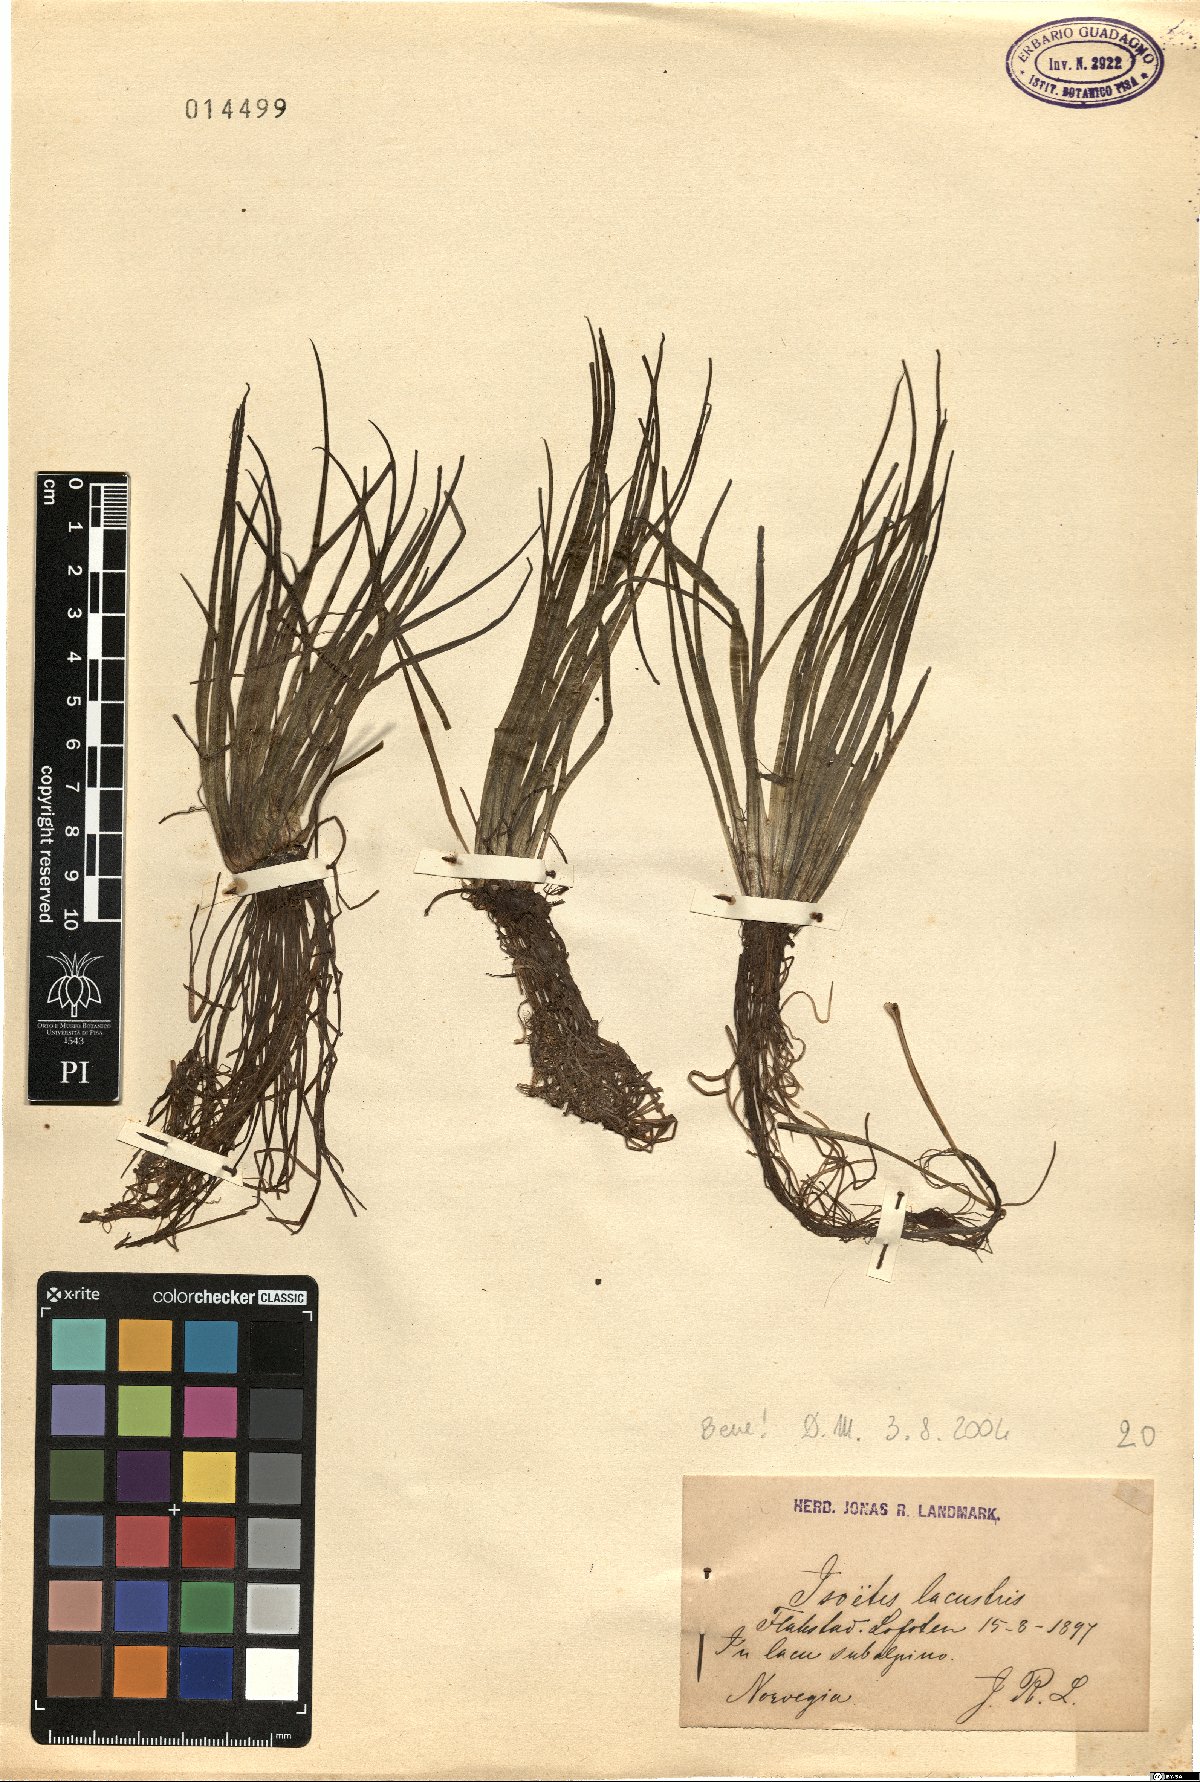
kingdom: Plantae
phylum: Tracheophyta
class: Lycopodiopsida
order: Isoetales
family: Isoetaceae
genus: Isoetes
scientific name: Isoetes lacustris
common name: Common quillwort
